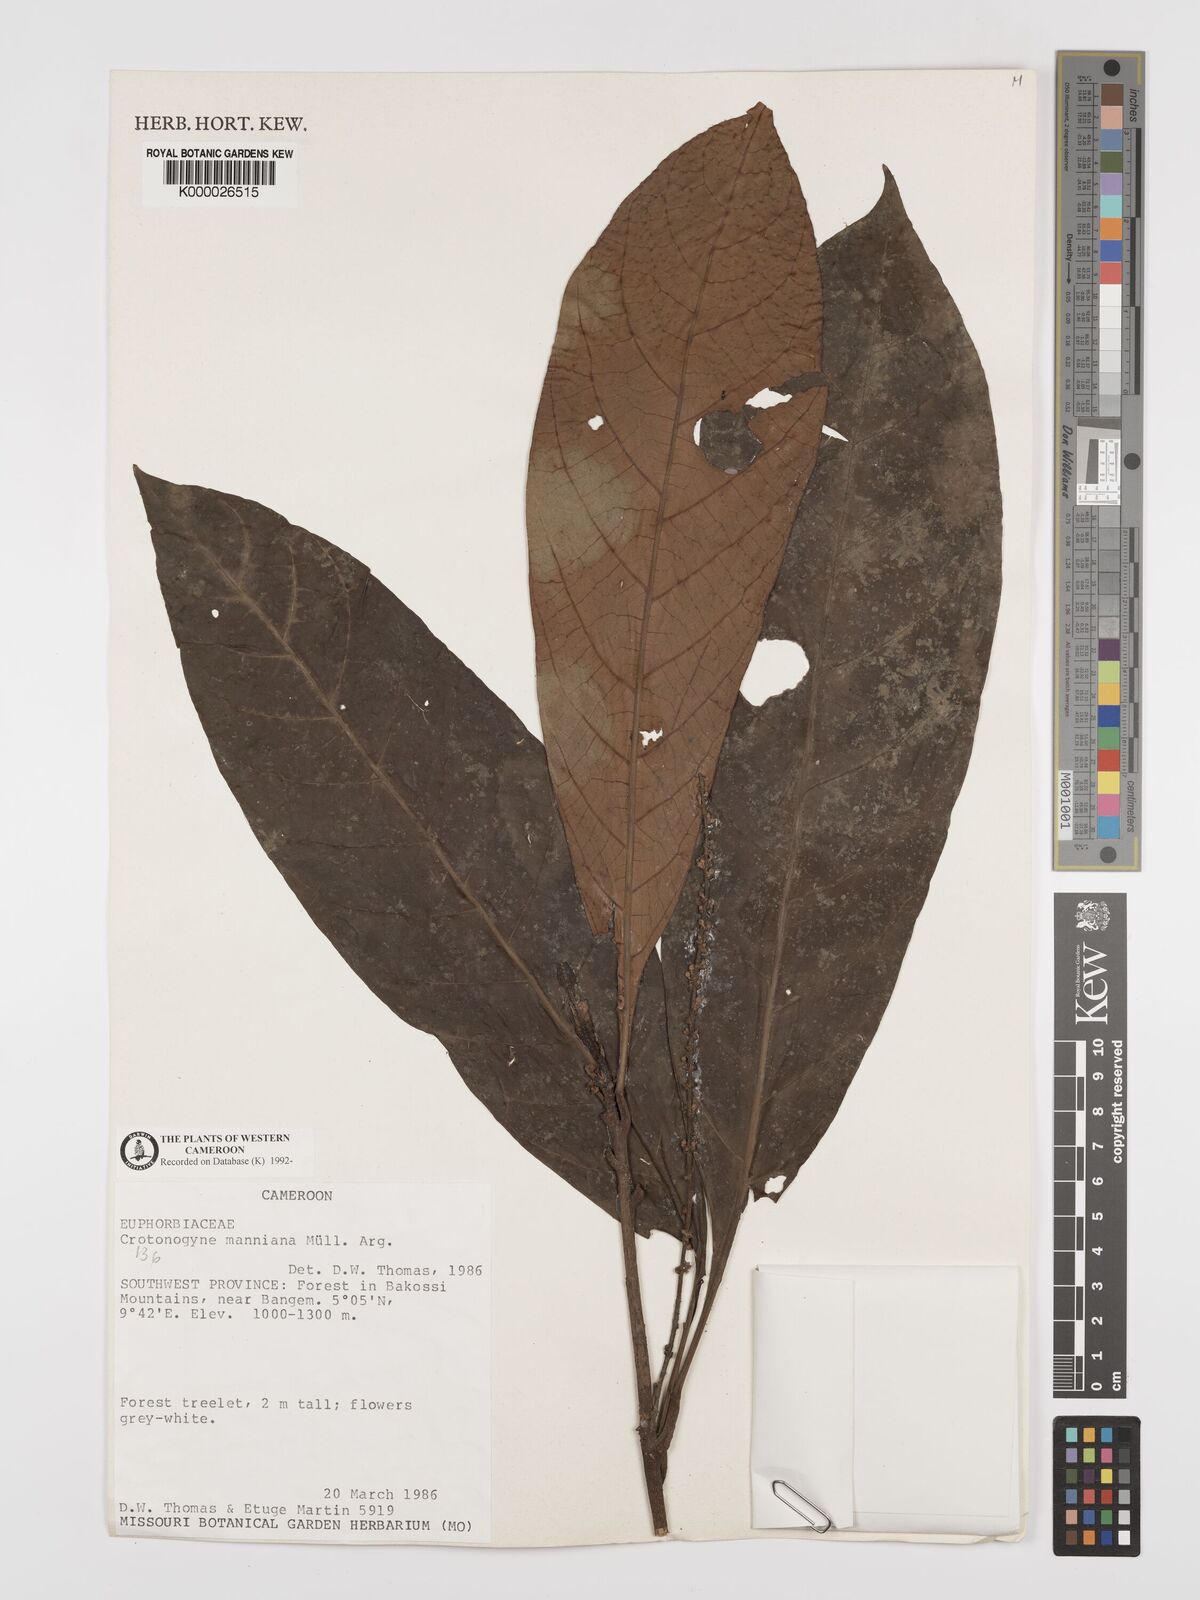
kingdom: Plantae
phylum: Tracheophyta
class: Magnoliopsida
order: Malpighiales
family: Euphorbiaceae
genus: Crotonogyne
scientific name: Crotonogyne
